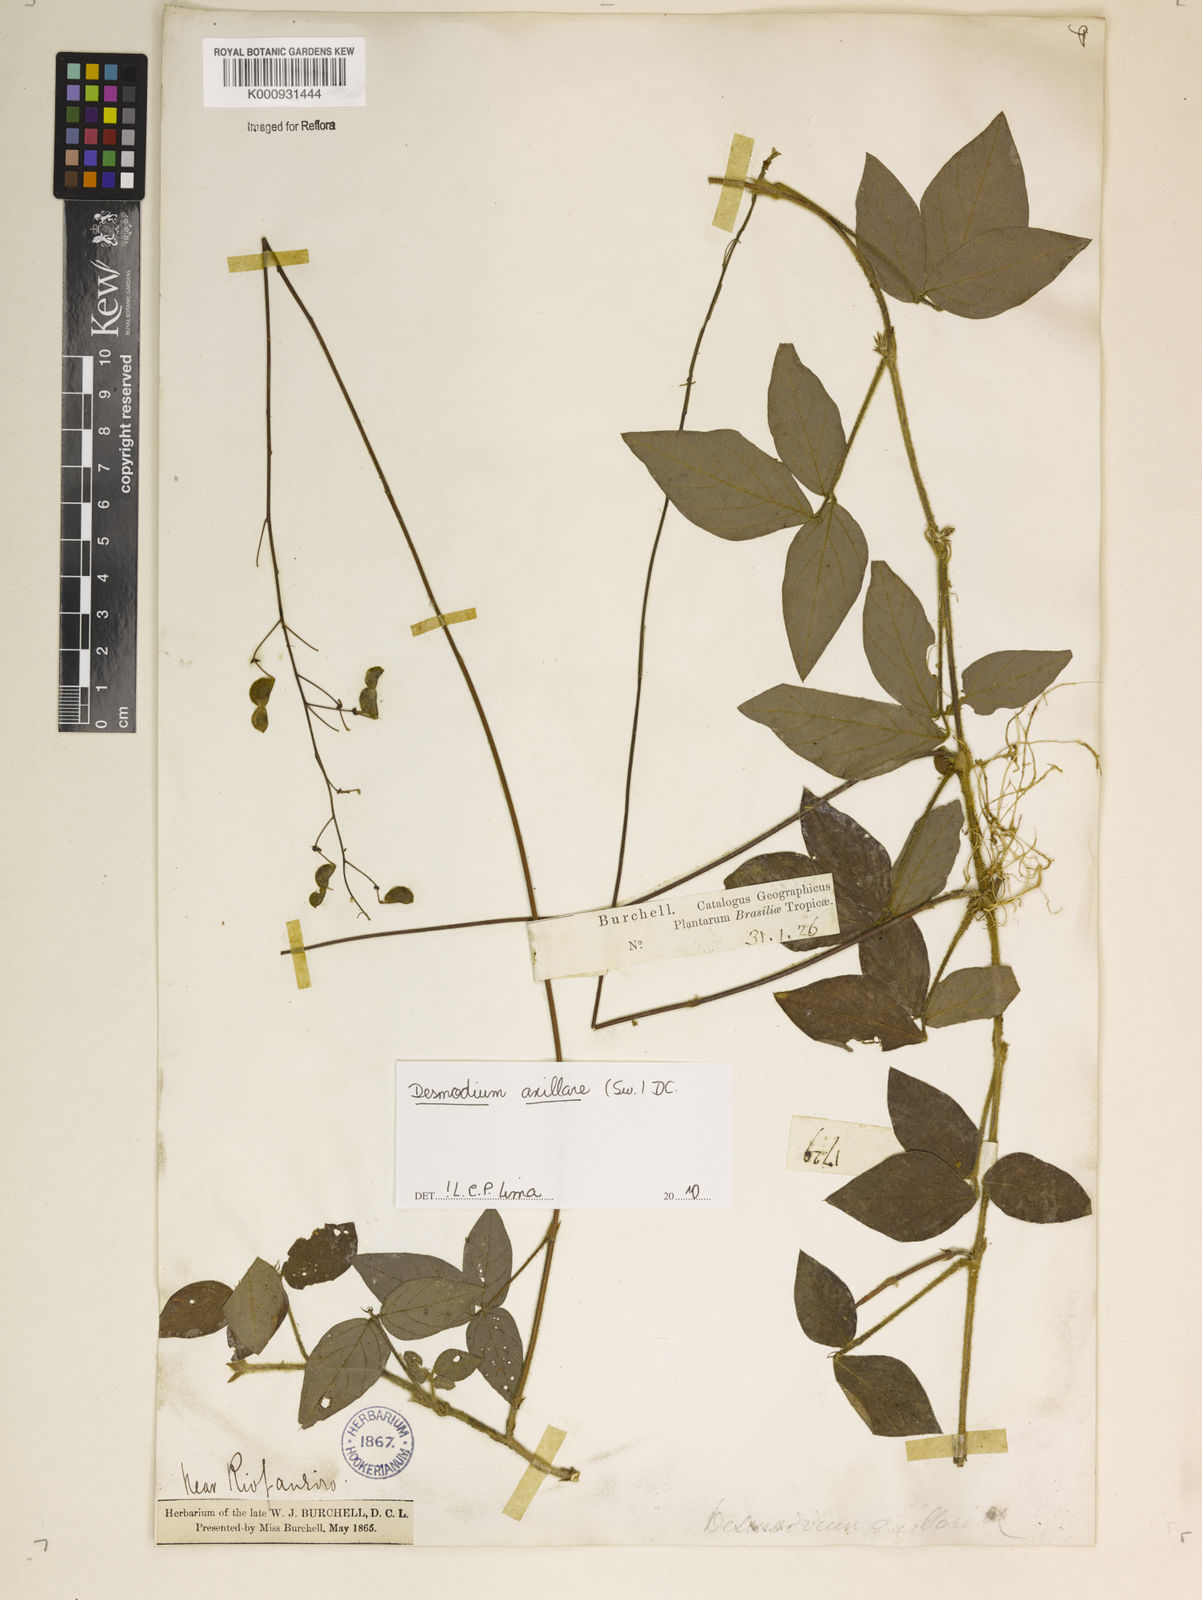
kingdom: Plantae
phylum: Tracheophyta
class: Magnoliopsida
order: Fabales
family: Fabaceae
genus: Desmodium
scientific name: Desmodium axillare
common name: Wire with
